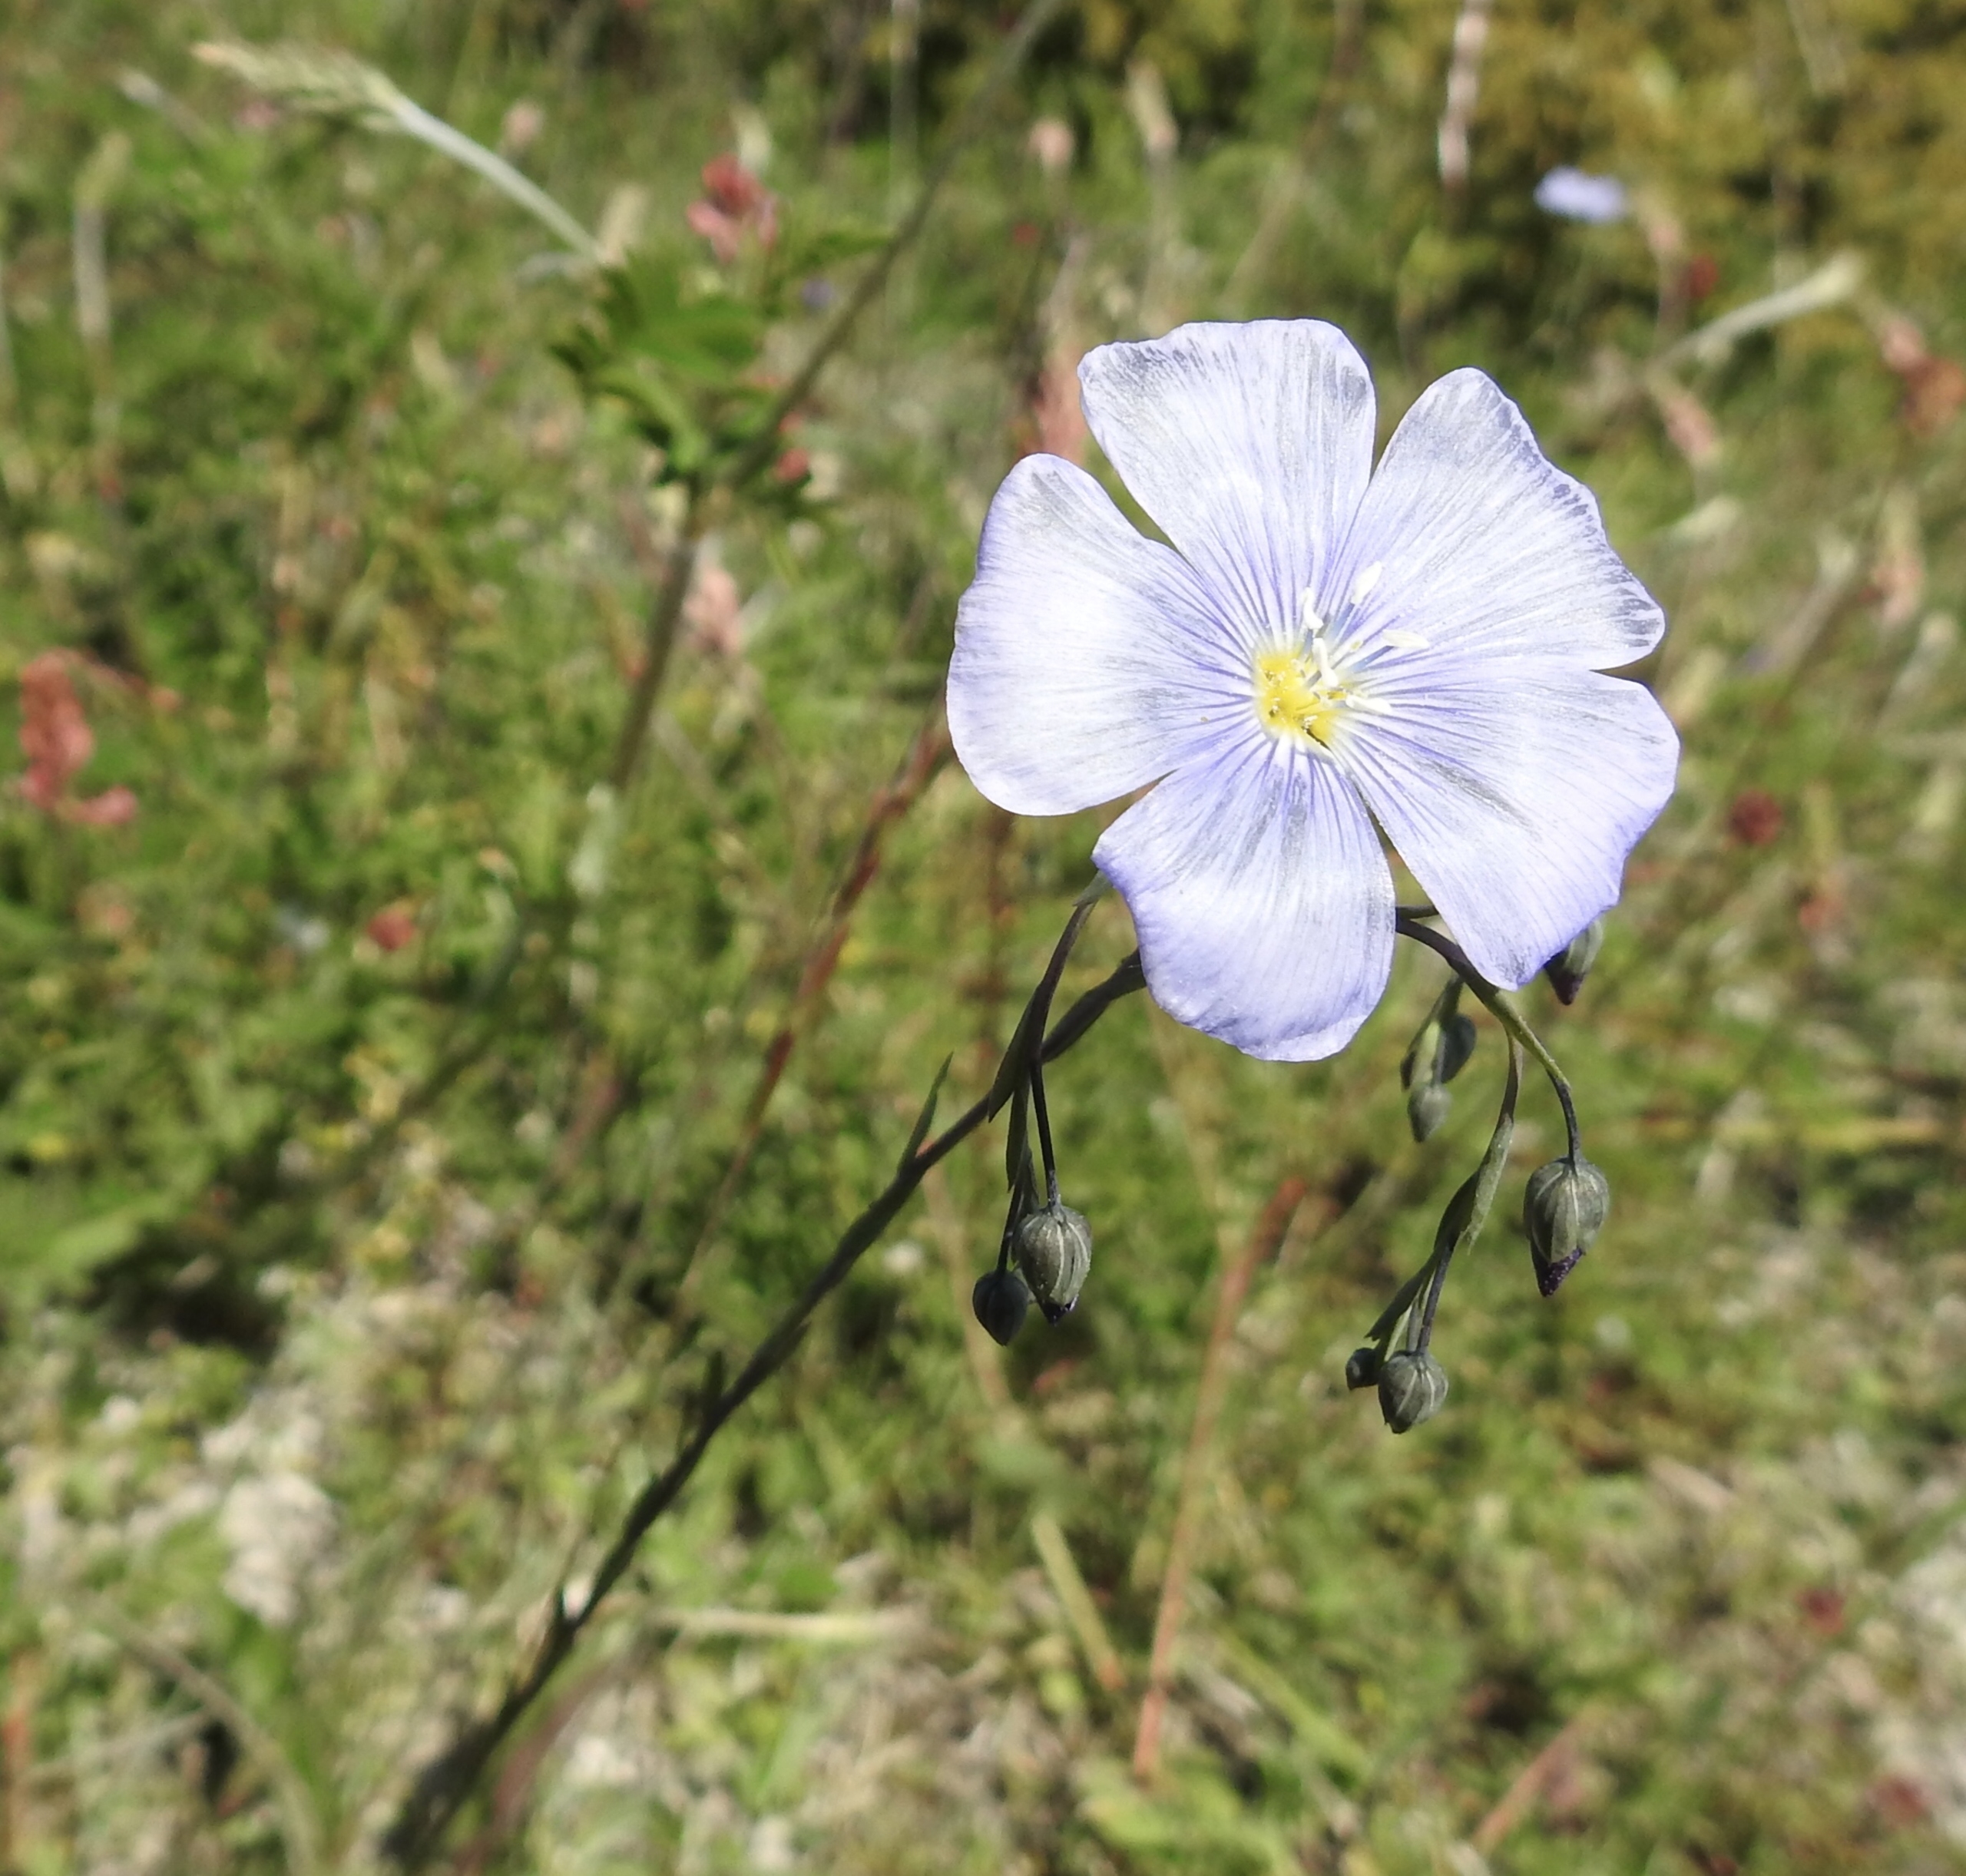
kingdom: Plantae
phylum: Tracheophyta
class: Magnoliopsida
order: Malpighiales
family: Linaceae
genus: Linum
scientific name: Linum austriacum
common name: Østrigsk hør
